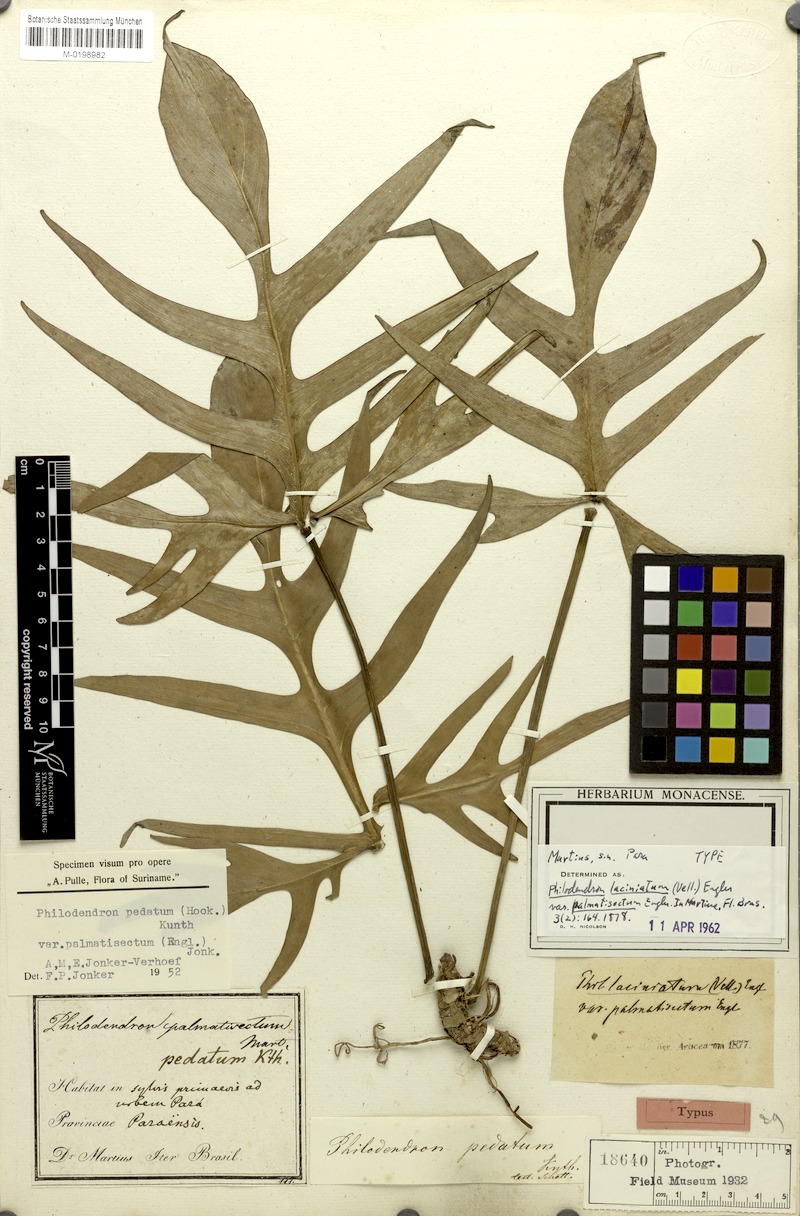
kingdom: Plantae
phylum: Tracheophyta
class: Liliopsida
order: Alismatales
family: Araceae
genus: Philodendron
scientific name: Philodendron pedatum
